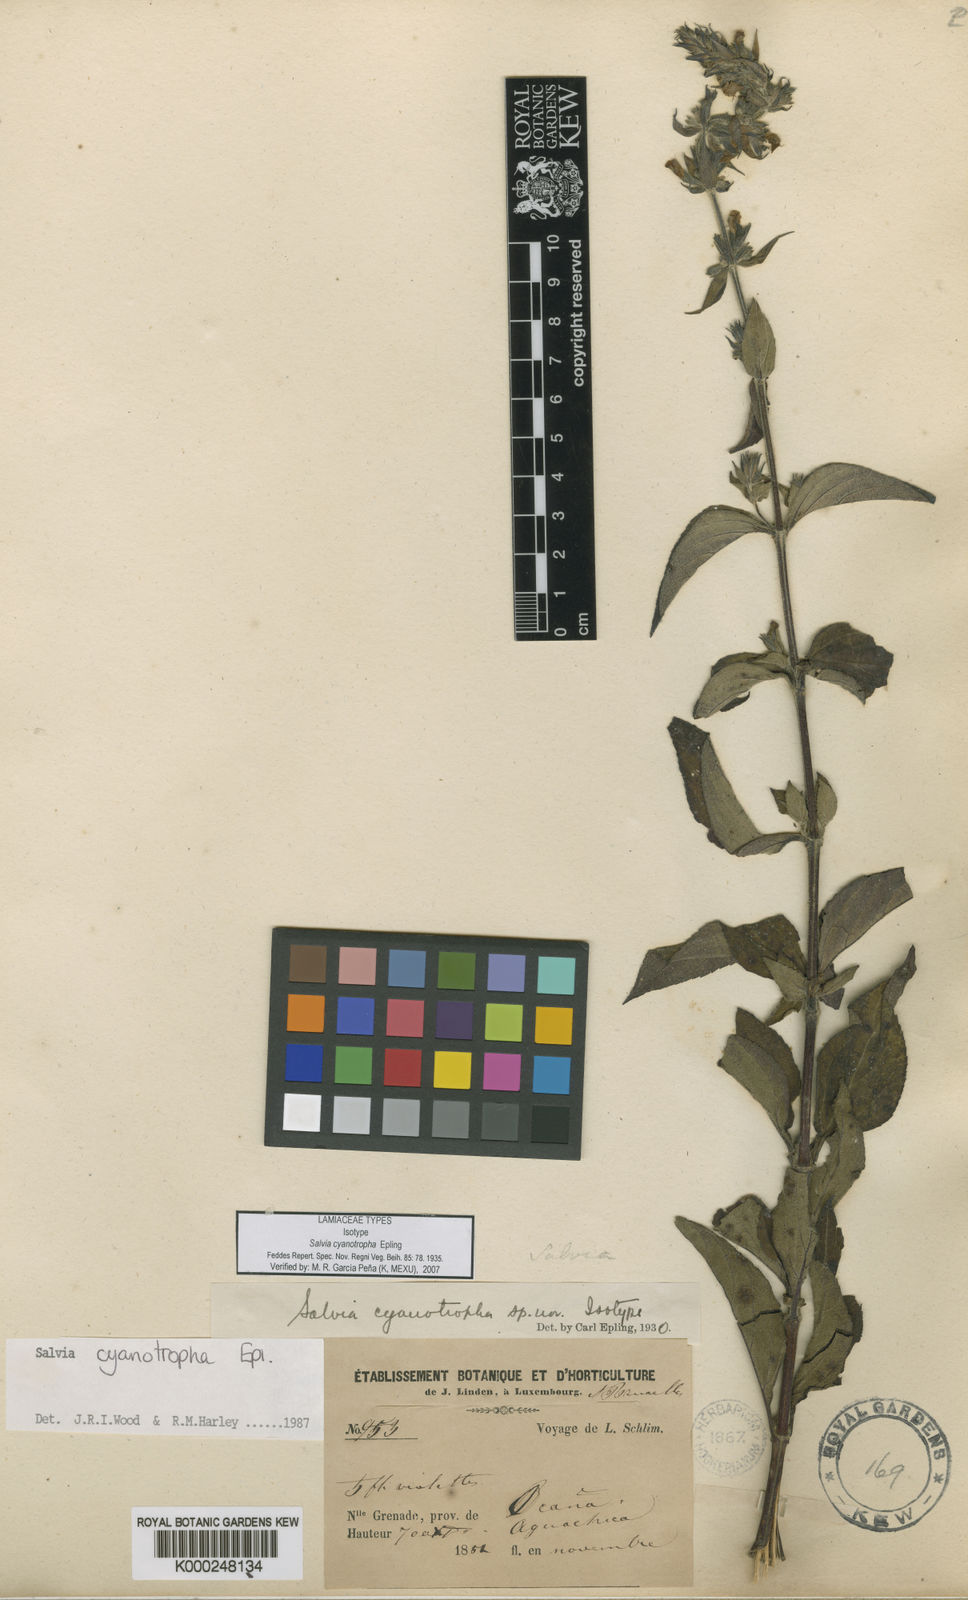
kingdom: Plantae
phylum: Tracheophyta
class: Magnoliopsida
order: Lamiales
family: Lamiaceae
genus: Salvia
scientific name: Salvia cyanotropha
